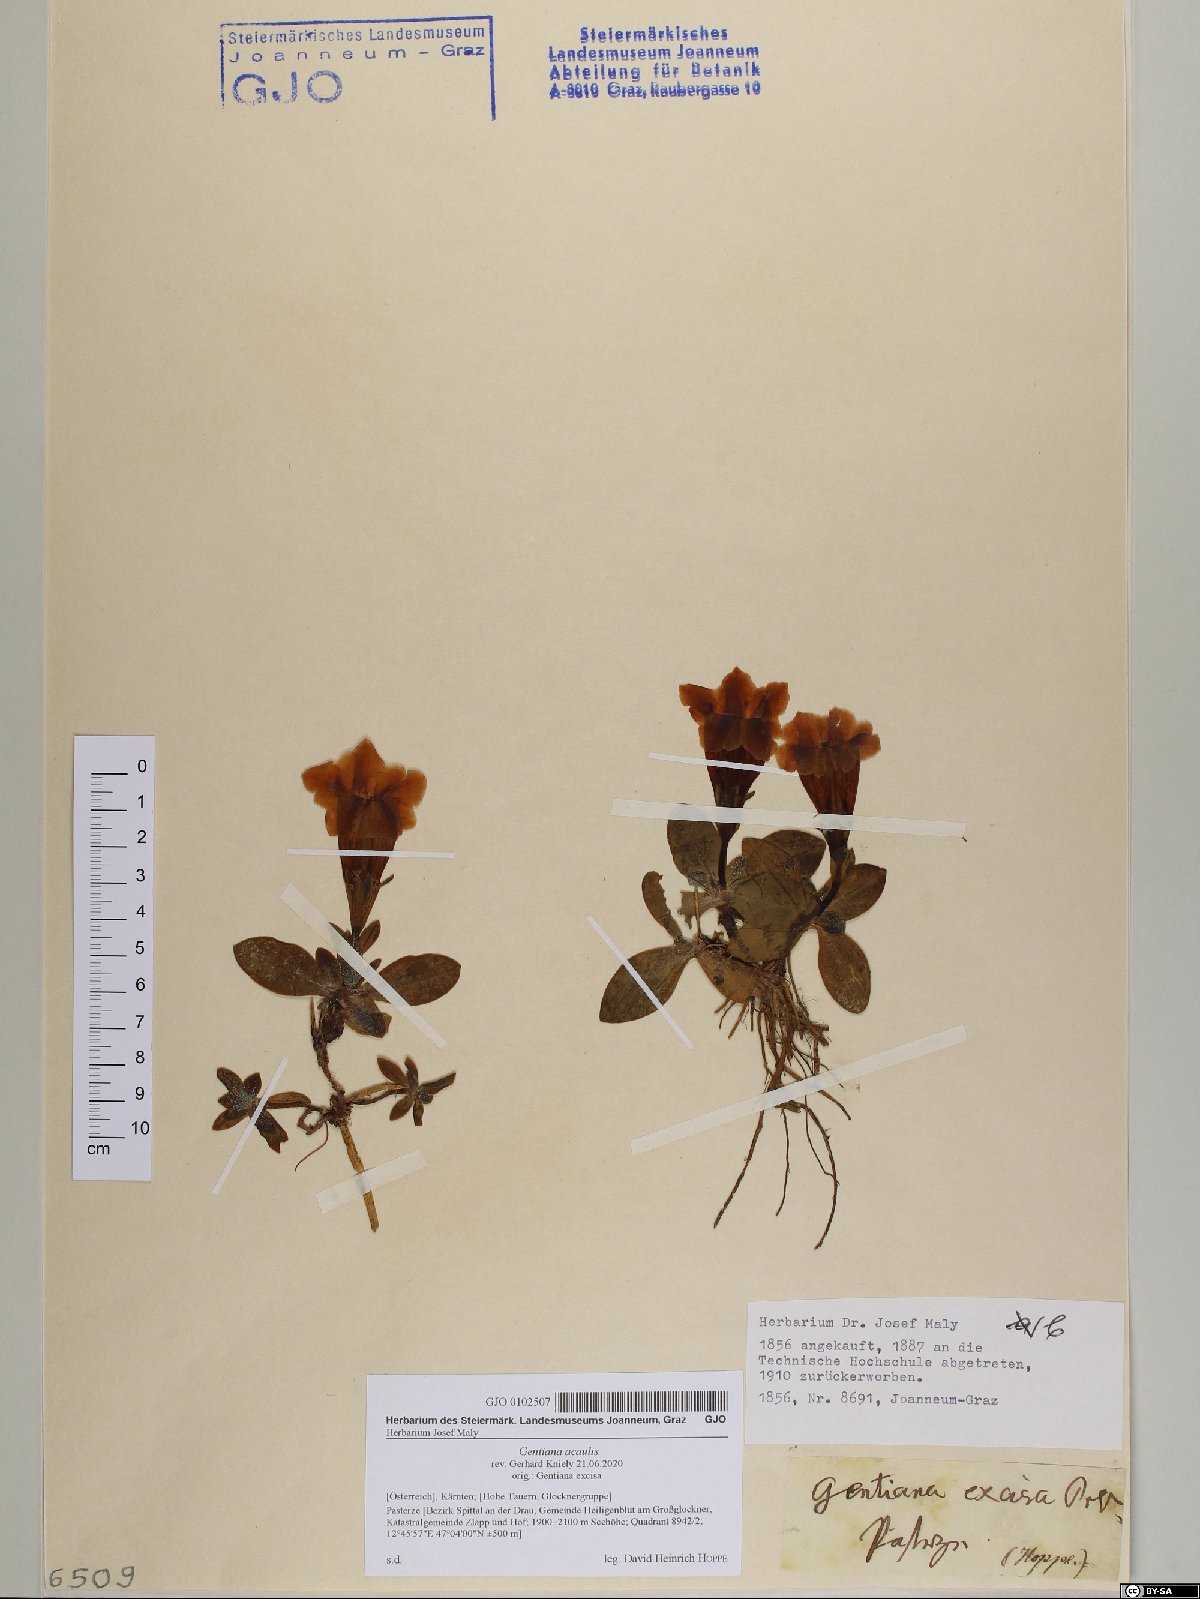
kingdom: Plantae
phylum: Tracheophyta
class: Magnoliopsida
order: Gentianales
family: Gentianaceae
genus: Gentiana
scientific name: Gentiana acaulis
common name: Trumpet gentian
